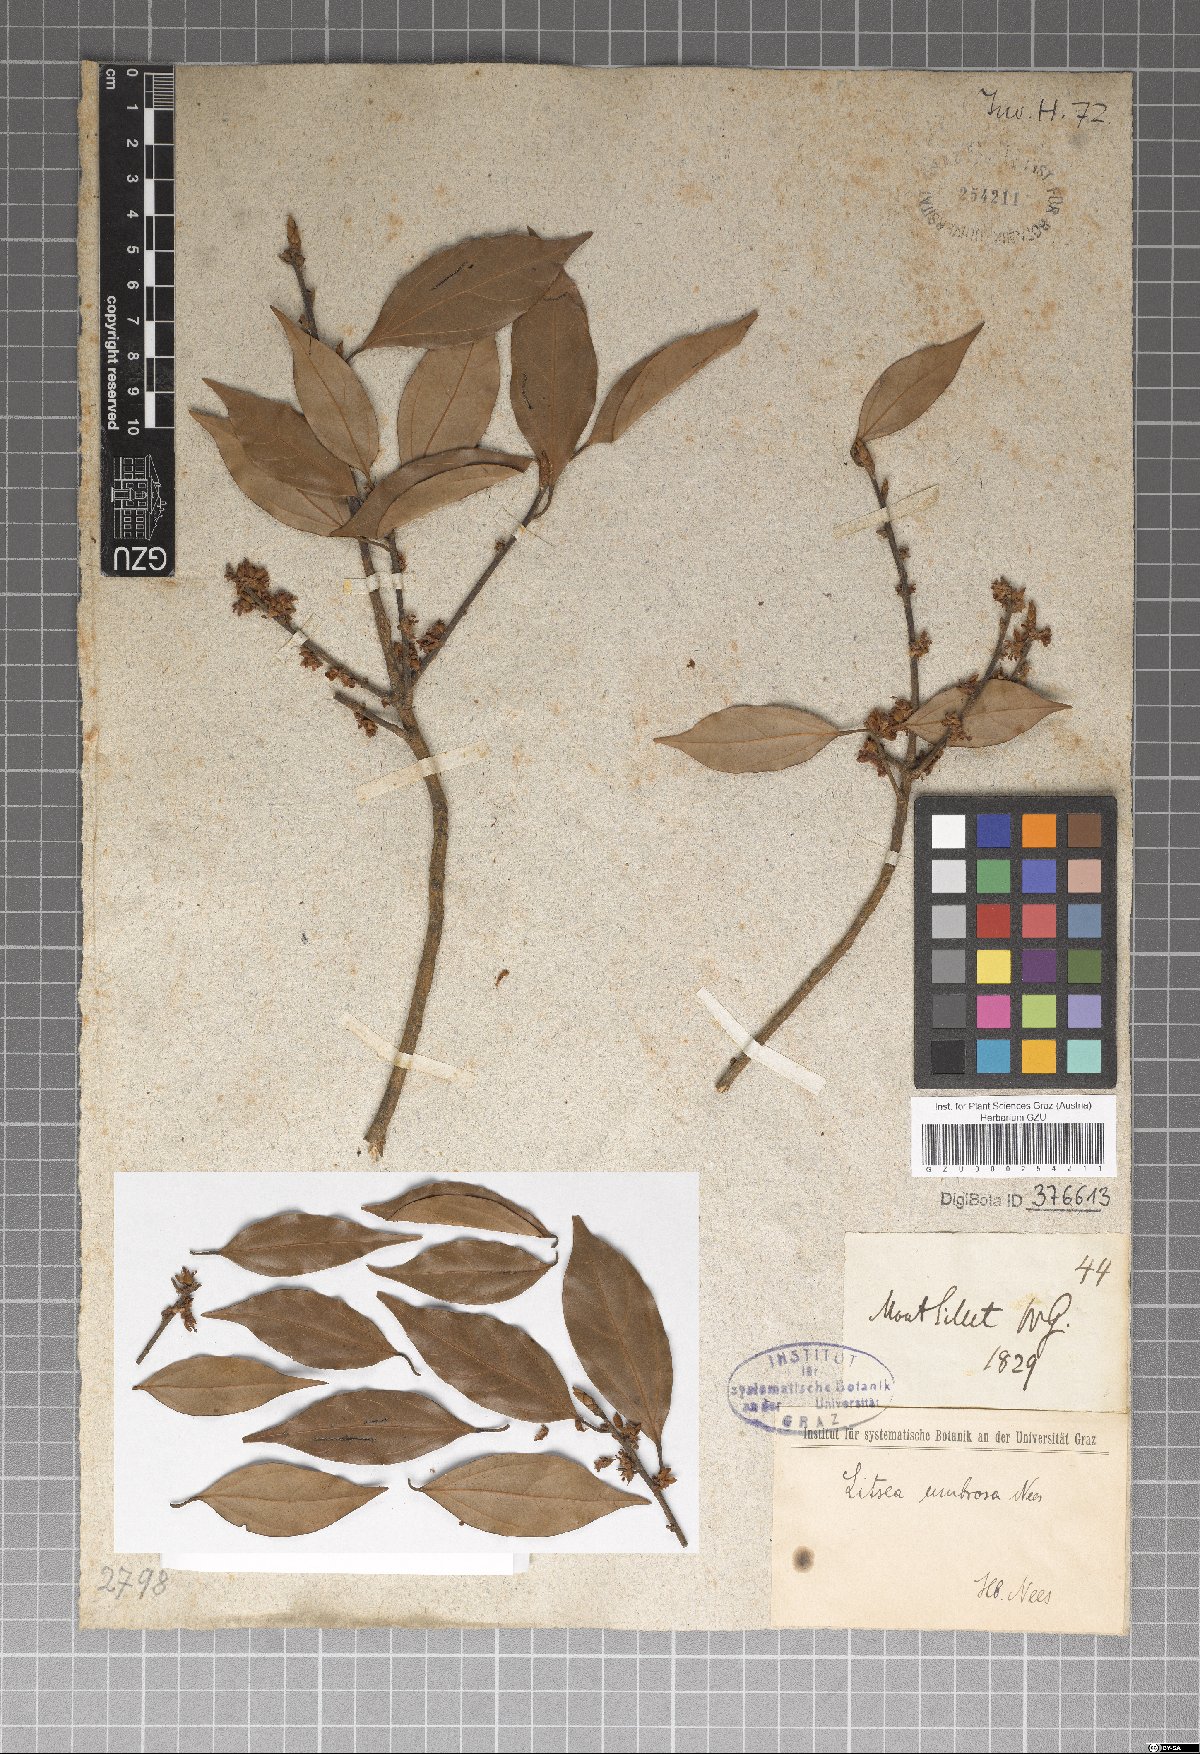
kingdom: Plantae
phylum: Tracheophyta
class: Magnoliopsida
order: Laurales
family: Lauraceae
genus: Neolitsea
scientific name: Neolitsea umbrosa
